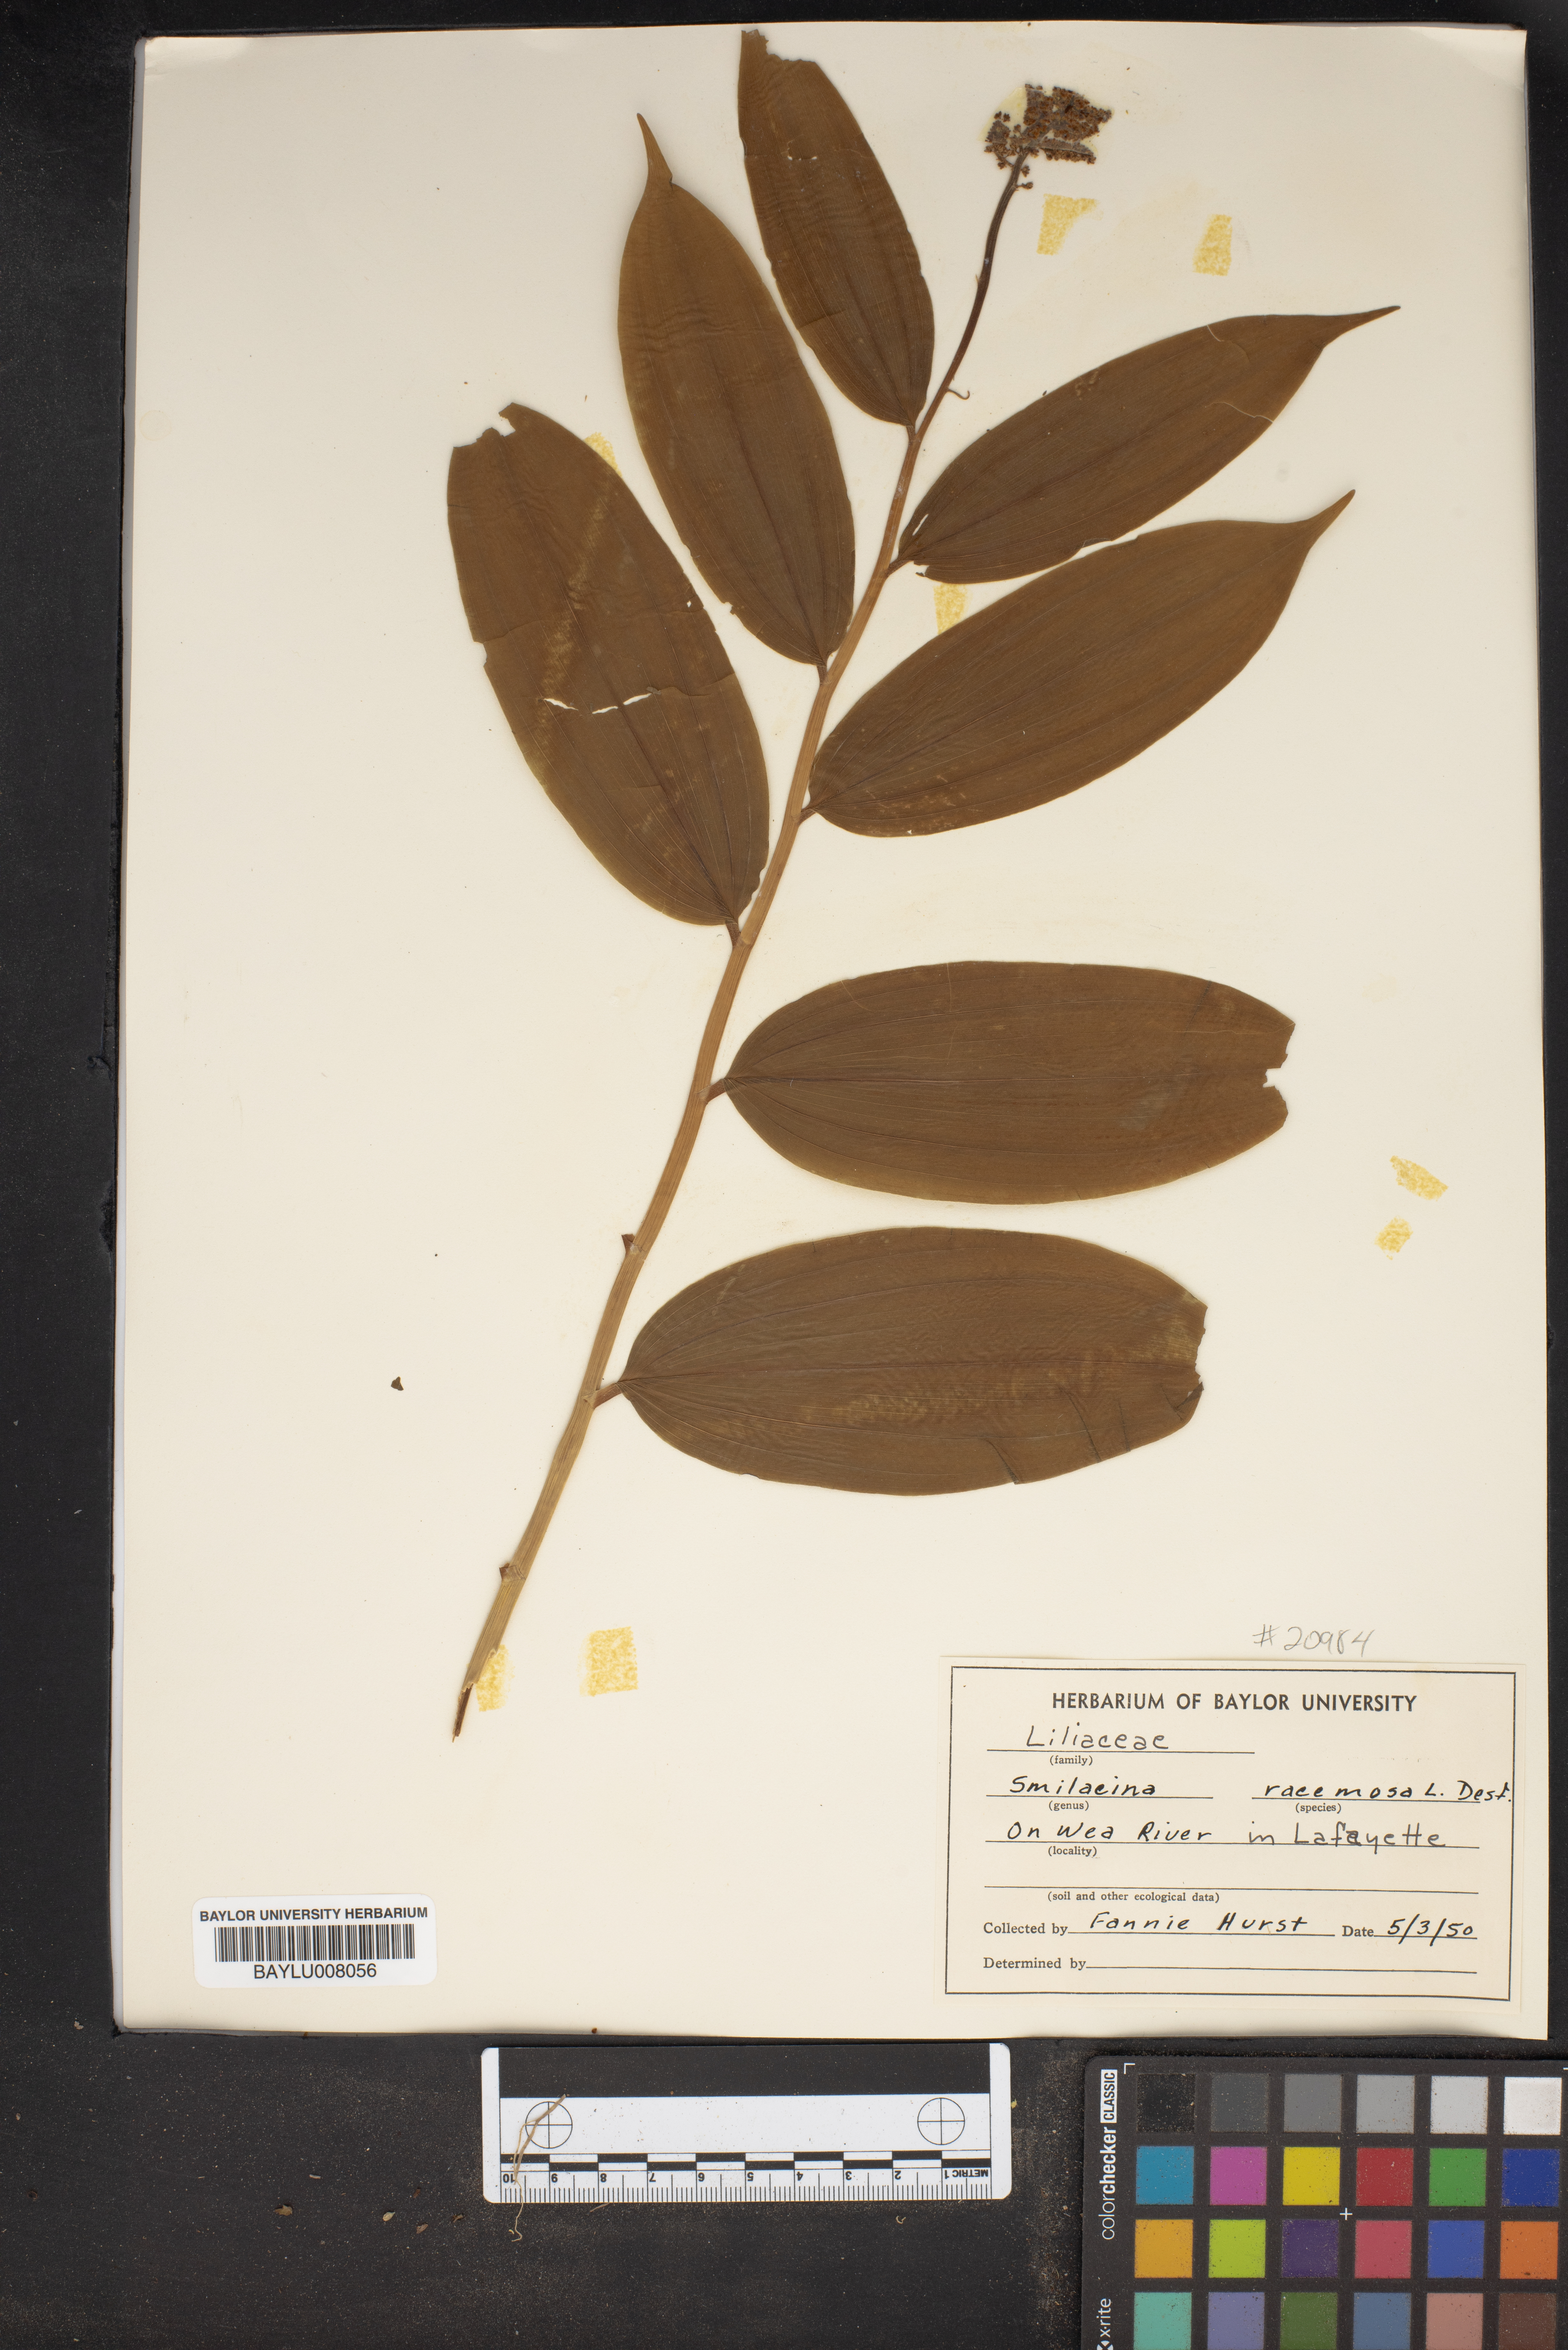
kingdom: Plantae
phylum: Tracheophyta
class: Liliopsida
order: Asparagales
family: Asparagaceae
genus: Maianthemum
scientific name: Maianthemum racemosum
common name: False spikenard
